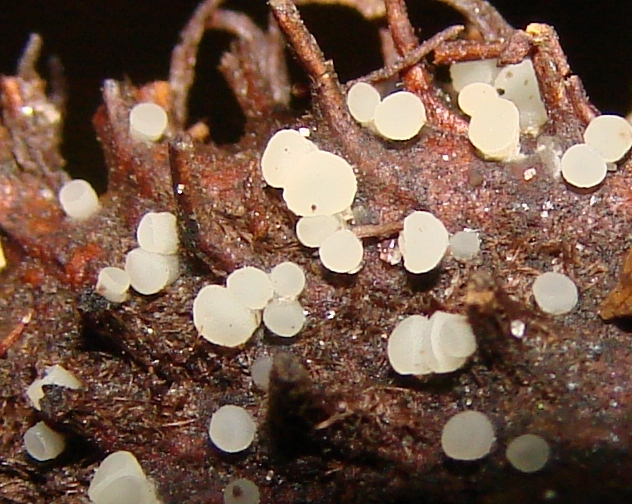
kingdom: Fungi
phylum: Ascomycota
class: Leotiomycetes
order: Helotiales
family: Helotiaceae
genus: Hymenoscyphus
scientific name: Hymenoscyphus fagineus
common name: vellugtende stilkskive
